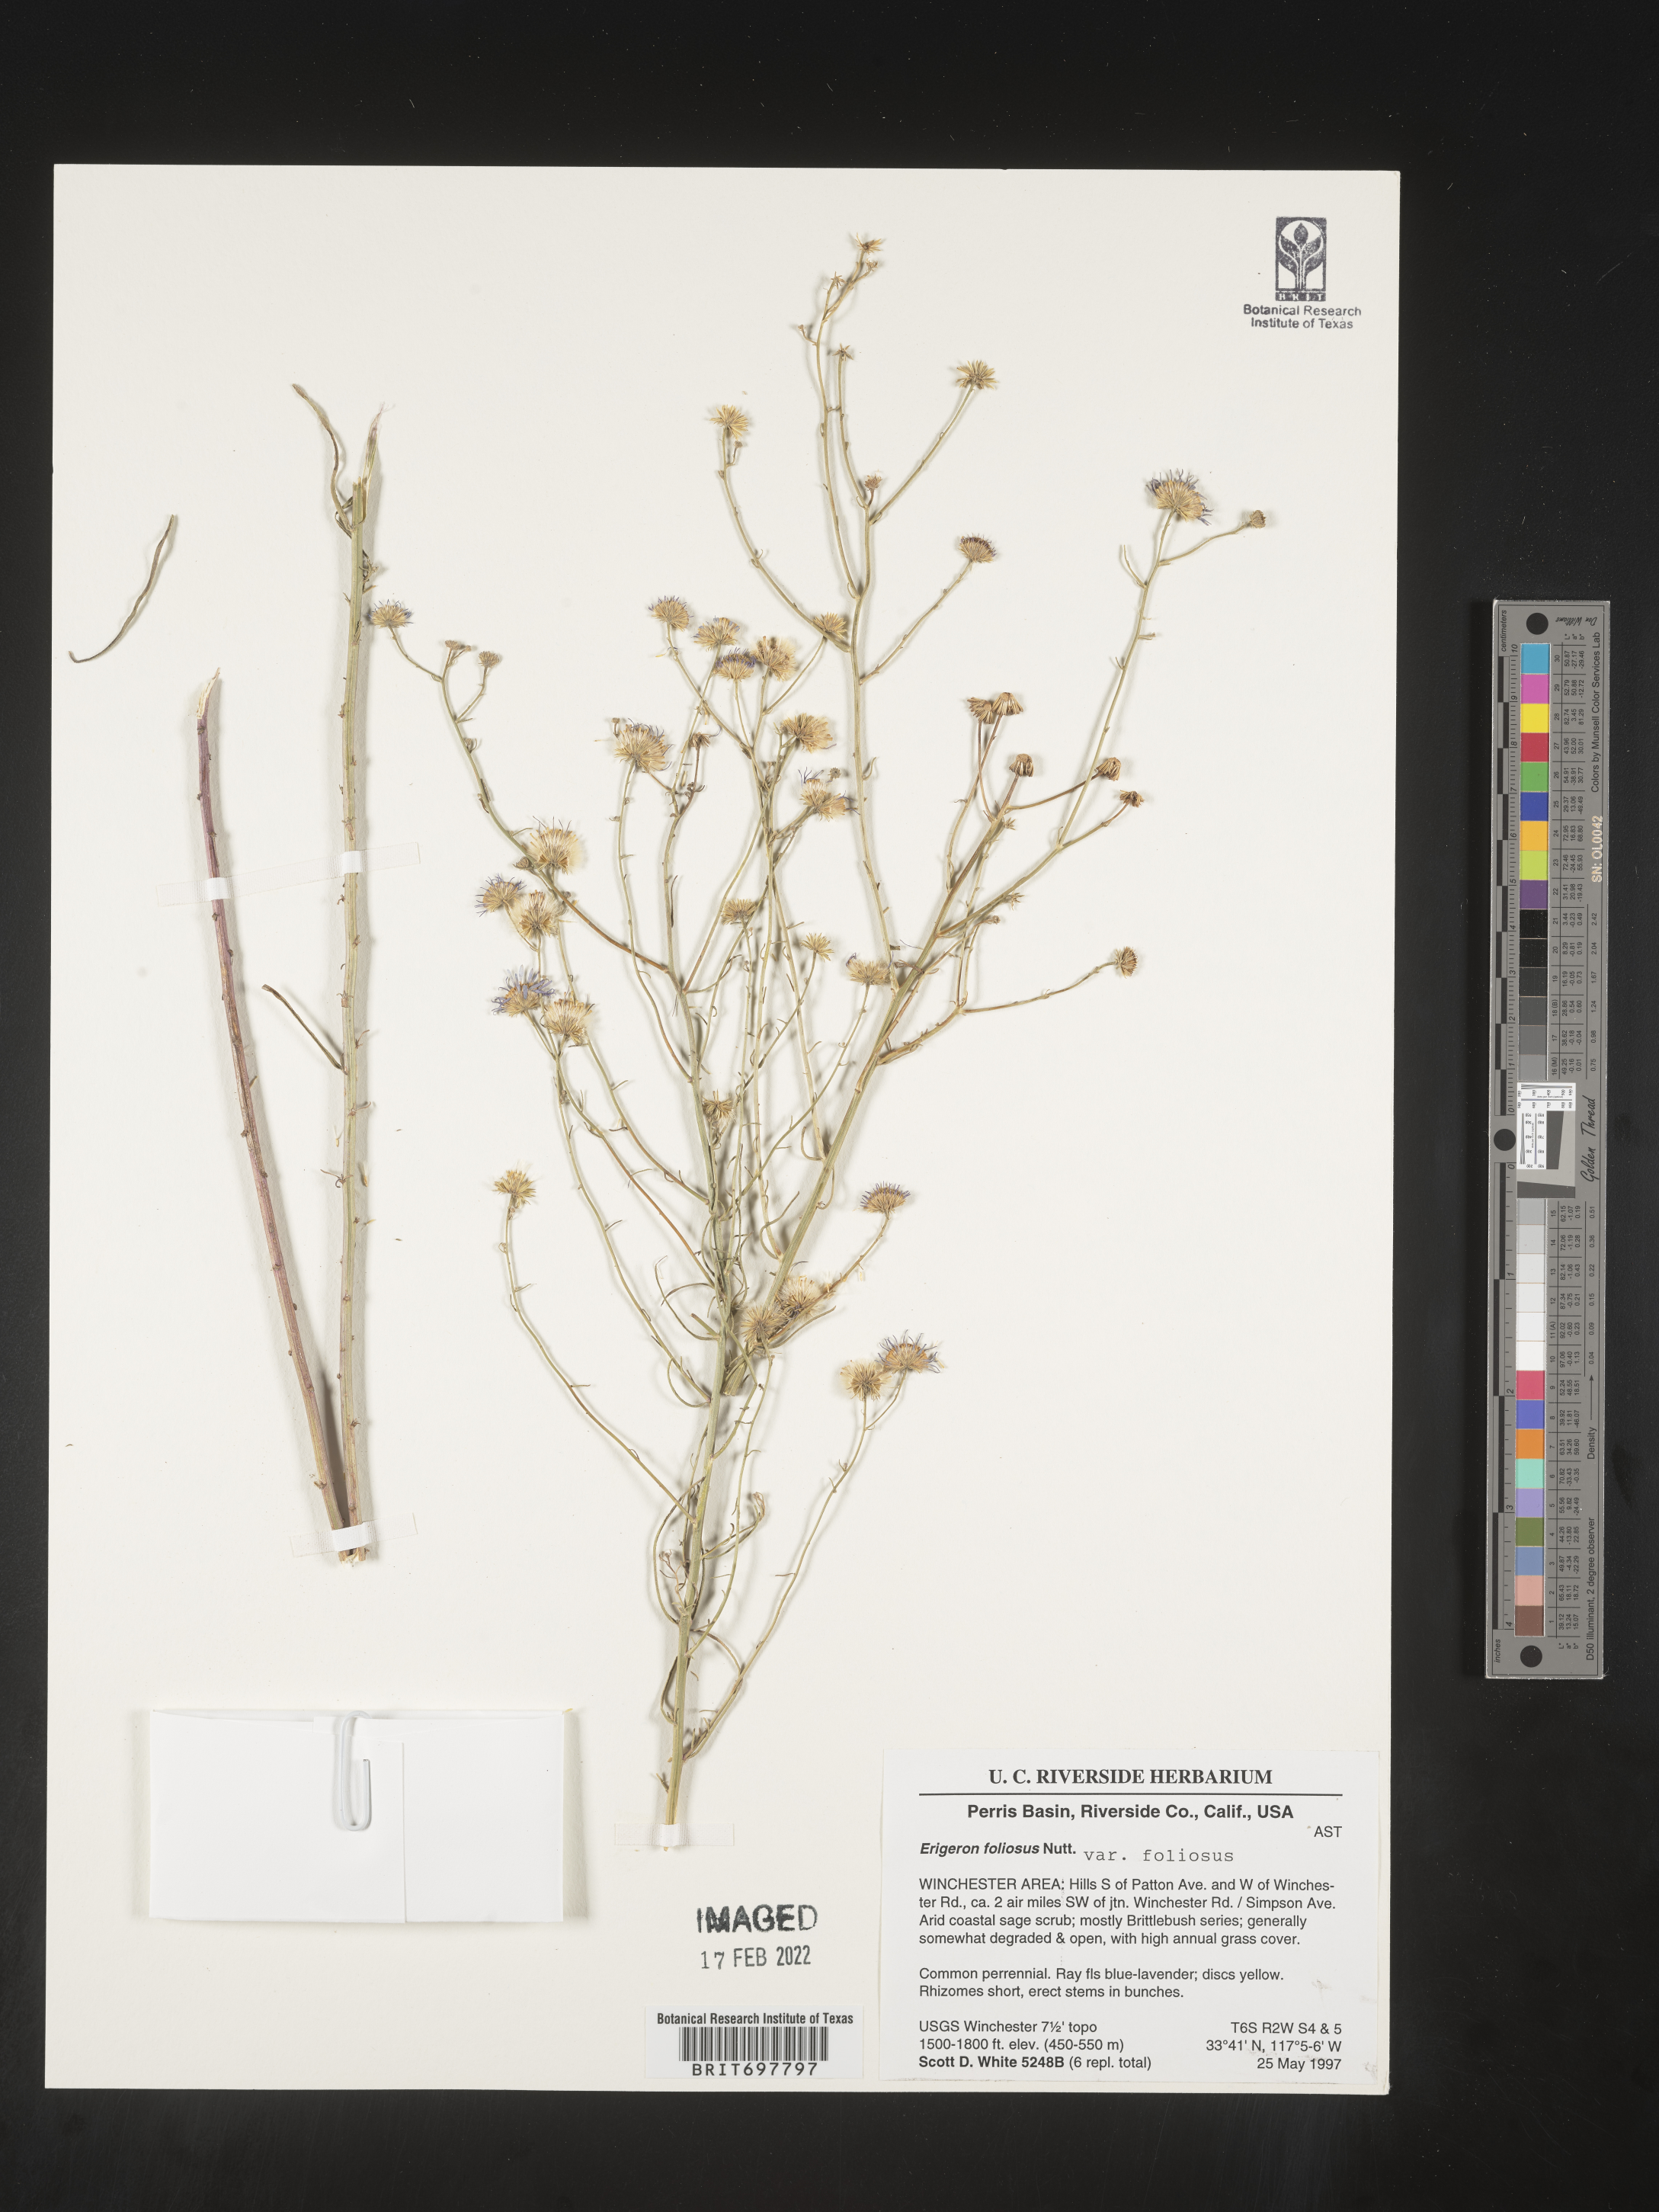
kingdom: Plantae
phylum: Tracheophyta
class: Magnoliopsida
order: Asterales
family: Asteraceae
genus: Erigeron
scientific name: Erigeron foliosus
